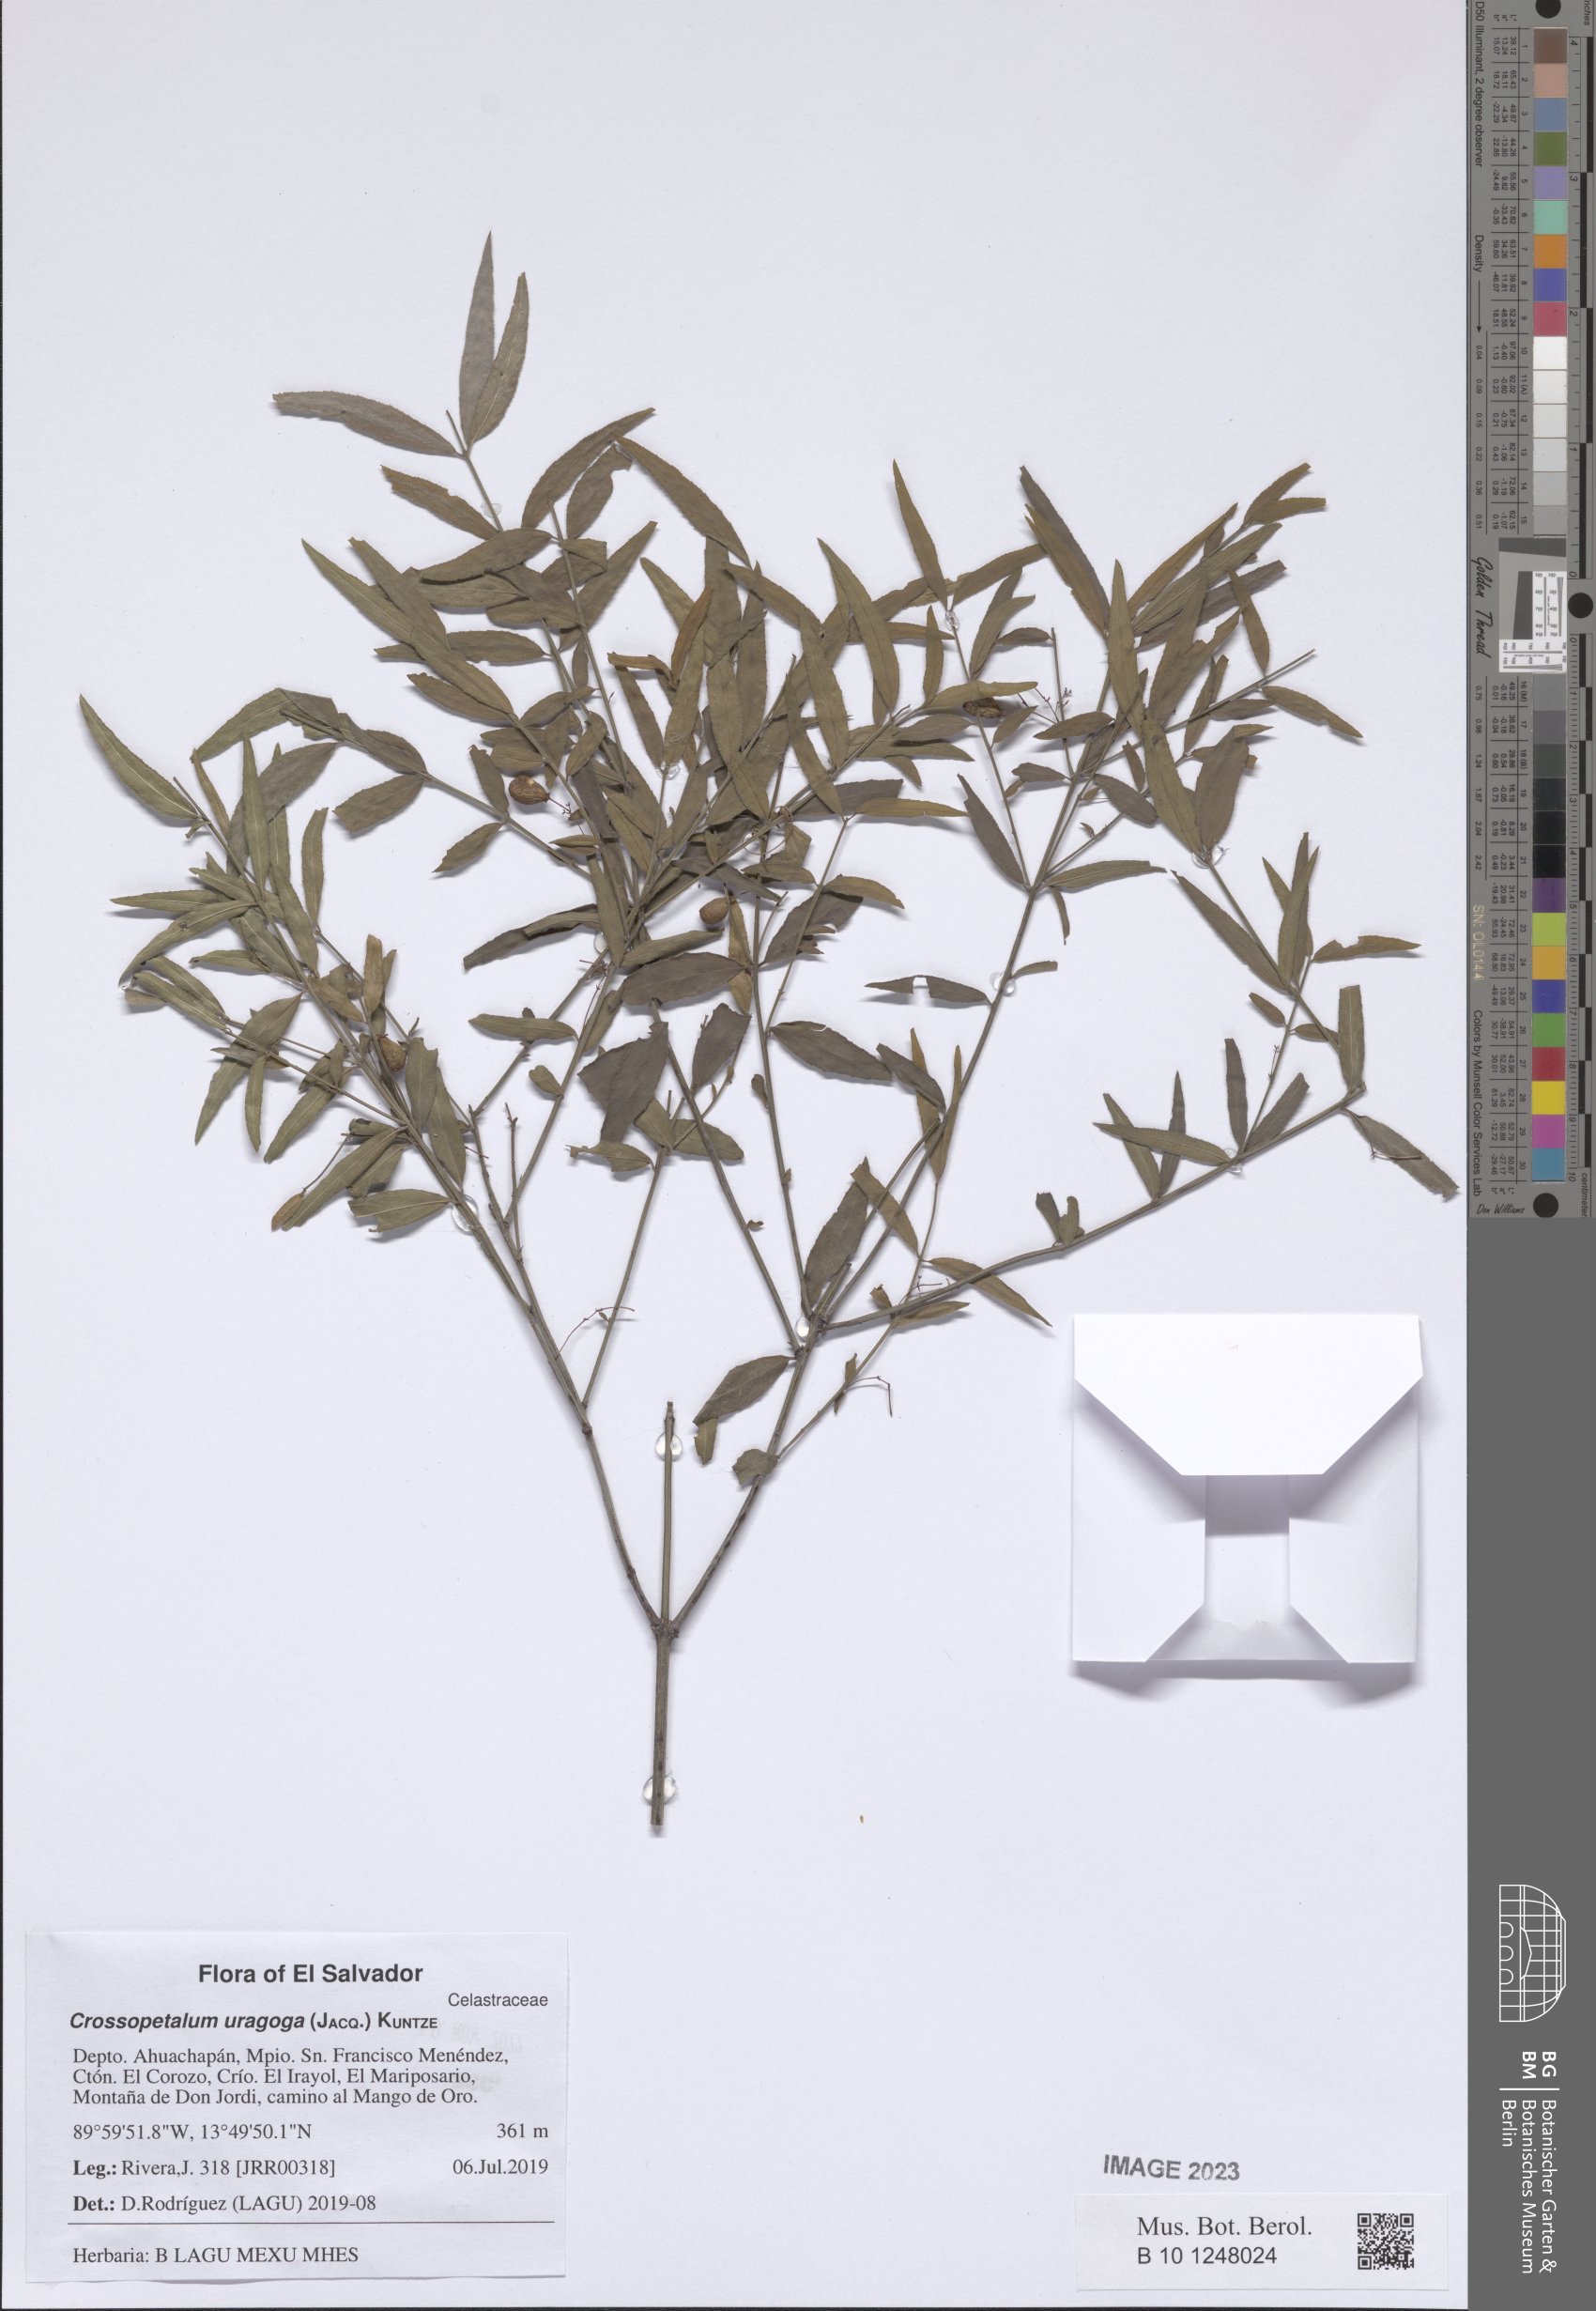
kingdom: Plantae
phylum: Tracheophyta
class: Magnoliopsida
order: Celastrales
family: Celastraceae
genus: Crossopetalum
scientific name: Crossopetalum uragoga
